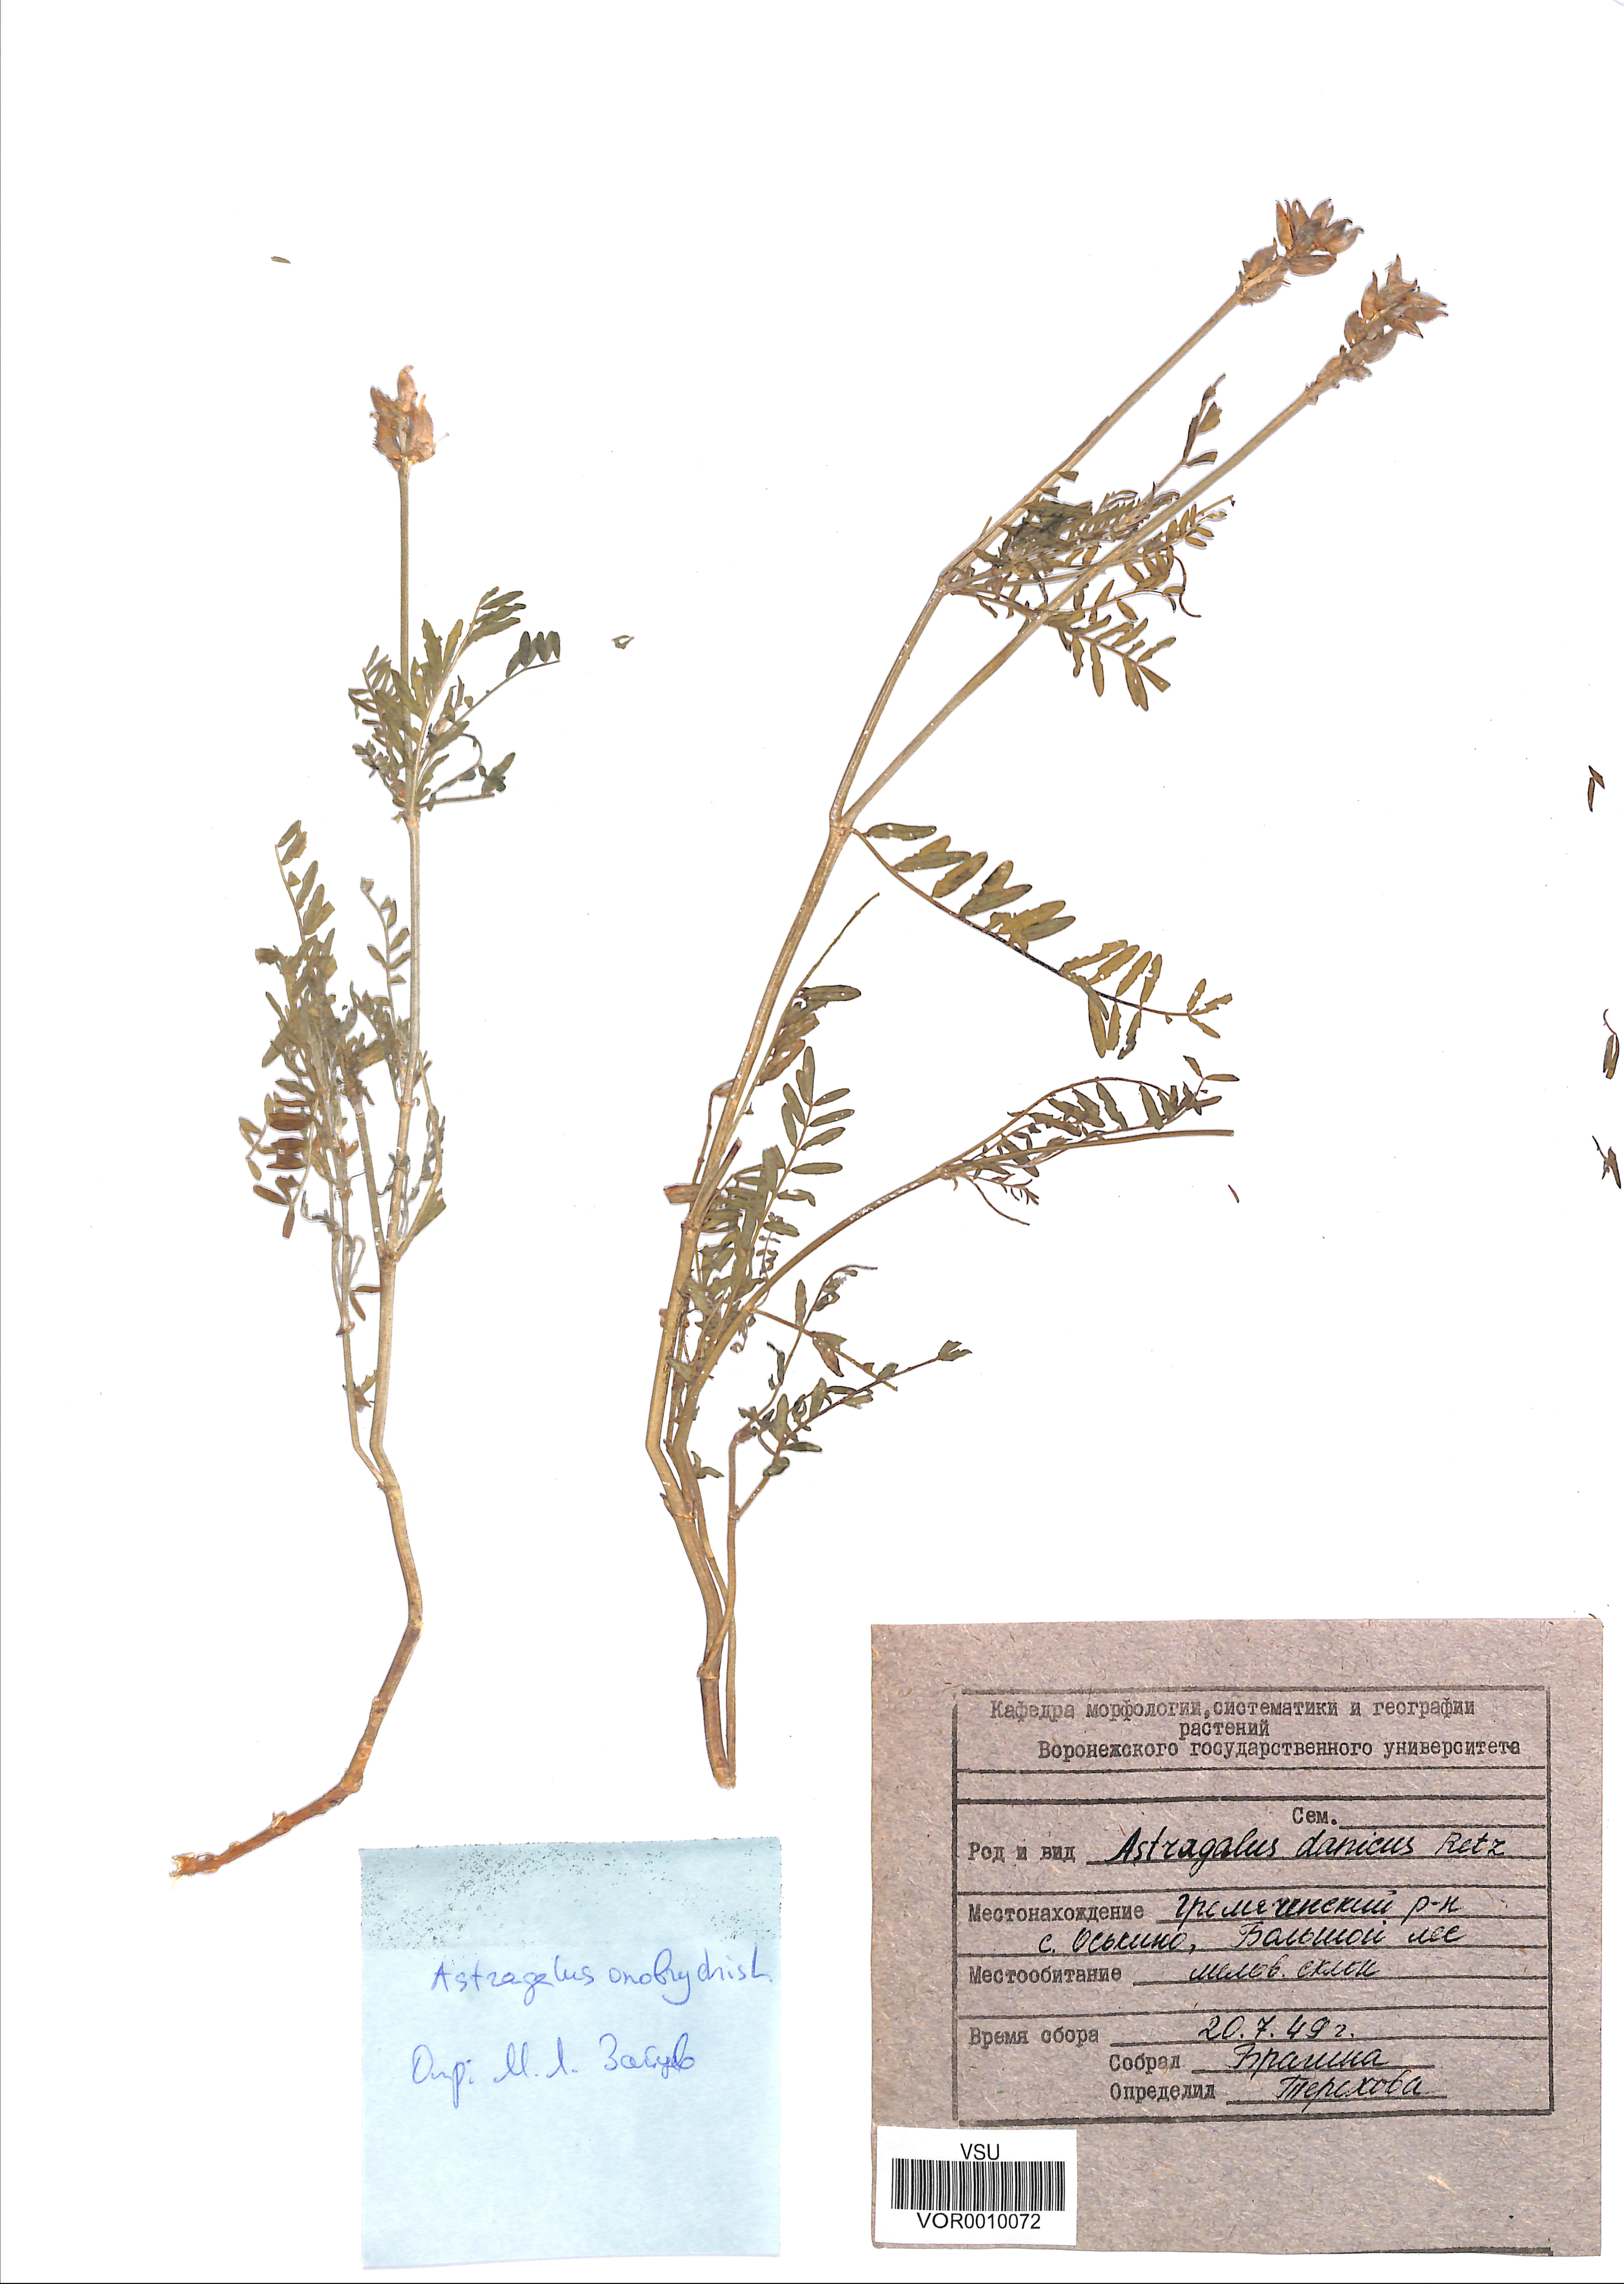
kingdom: Plantae
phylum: Tracheophyta
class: Magnoliopsida
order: Fabales
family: Fabaceae
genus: Astragalus
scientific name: Astragalus onobrychis
